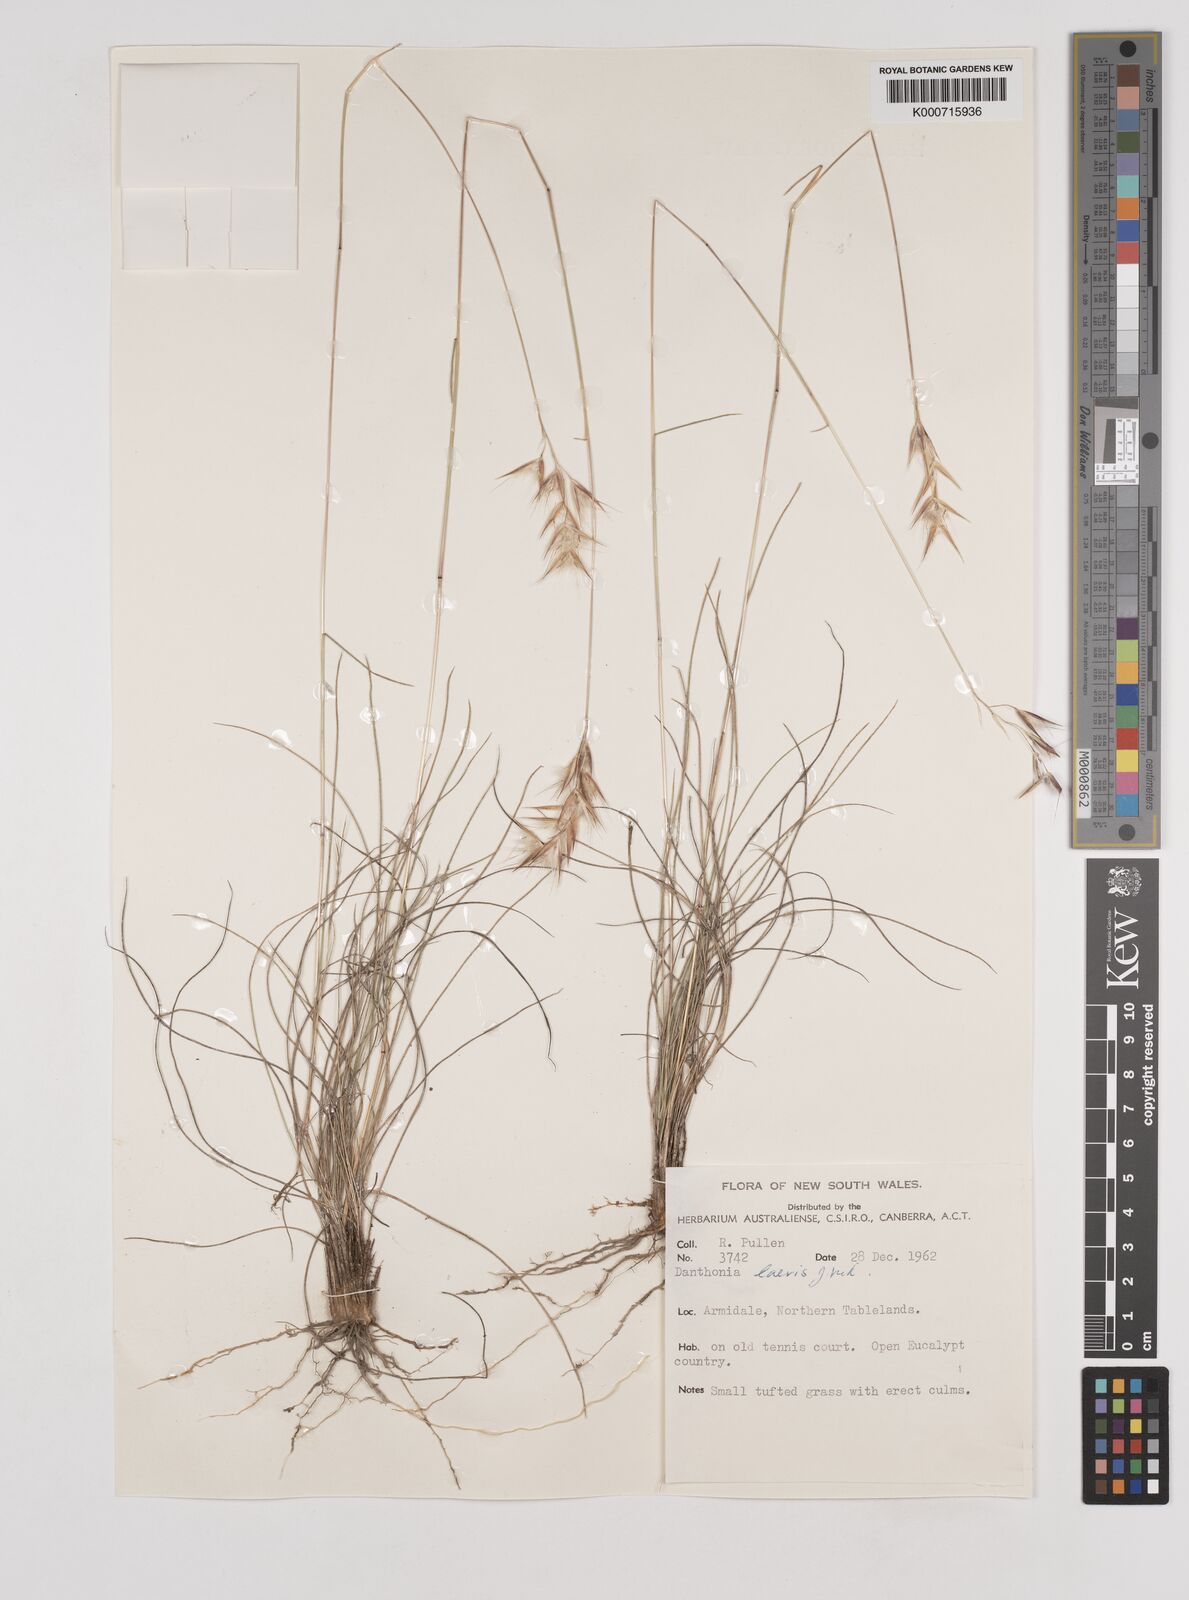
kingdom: Plantae
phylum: Tracheophyta
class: Liliopsida
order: Poales
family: Poaceae
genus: Rytidosperma
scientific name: Rytidosperma laeve
